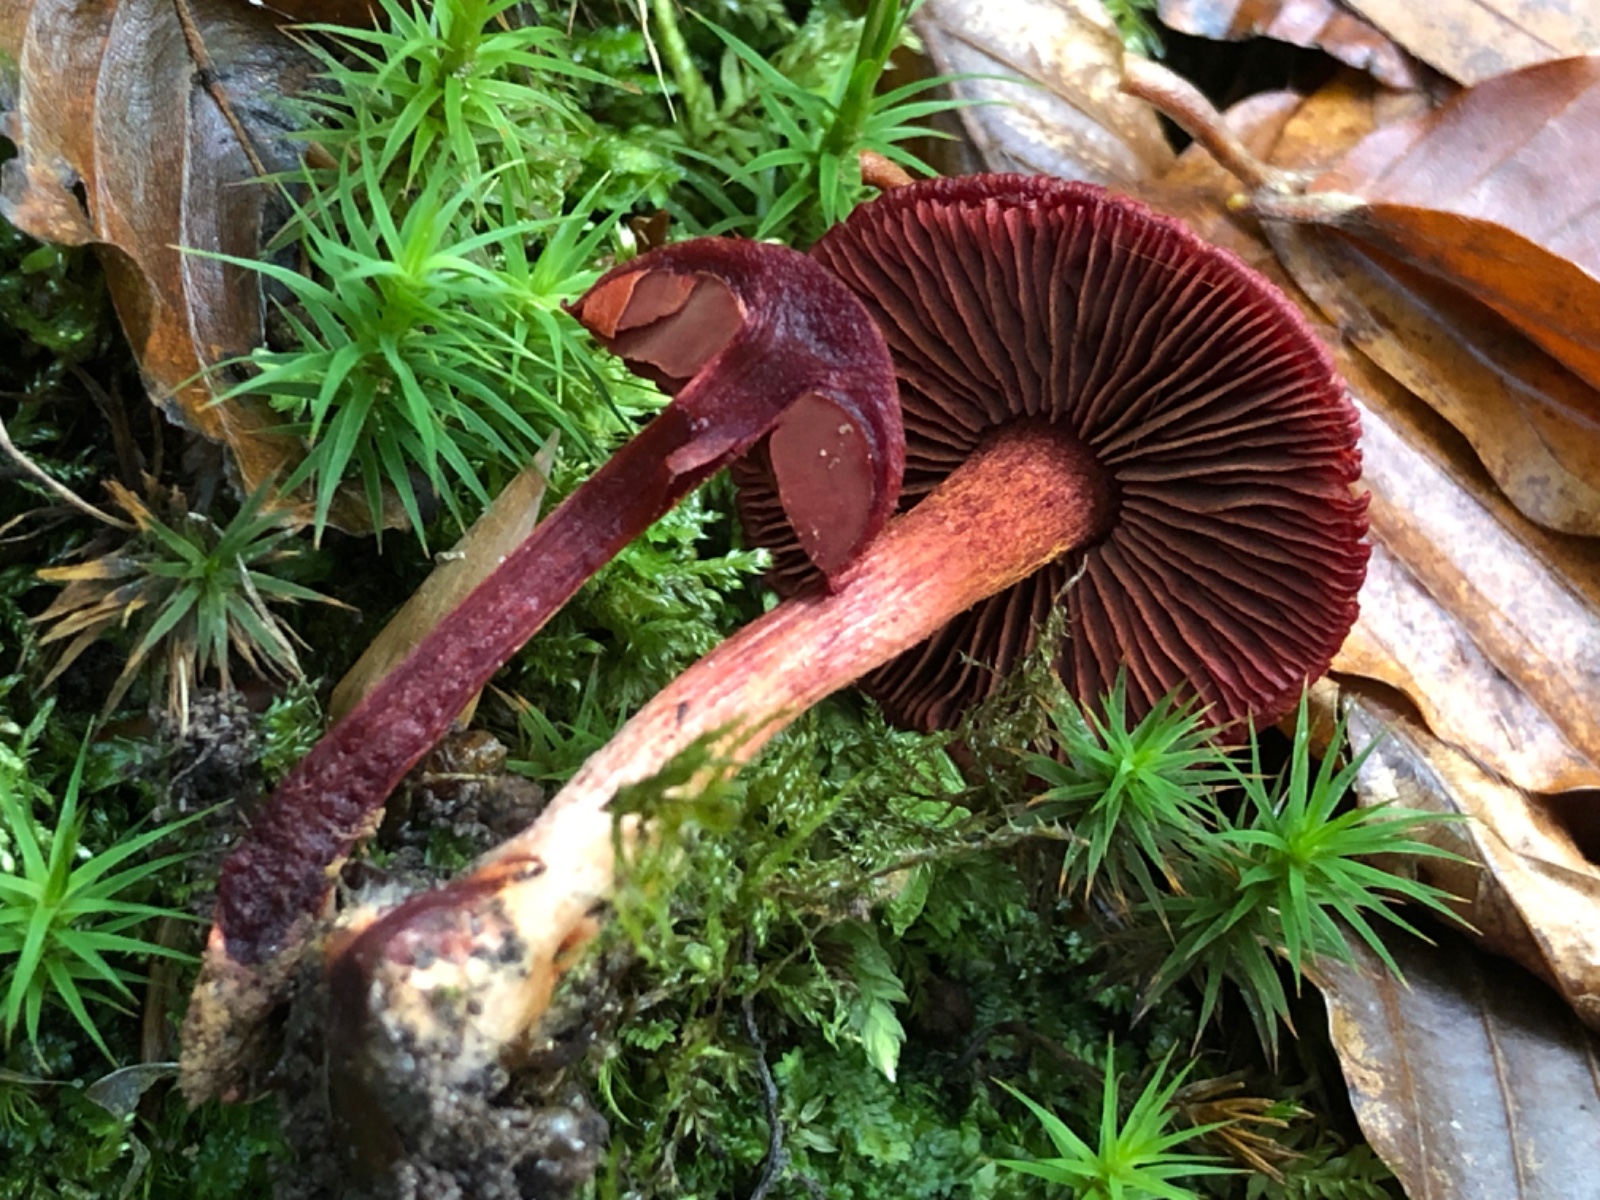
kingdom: Fungi
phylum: Basidiomycota
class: Agaricomycetes
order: Agaricales
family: Cortinariaceae
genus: Cortinarius
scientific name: Cortinarius sanguineus
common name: Bloodred webcap
